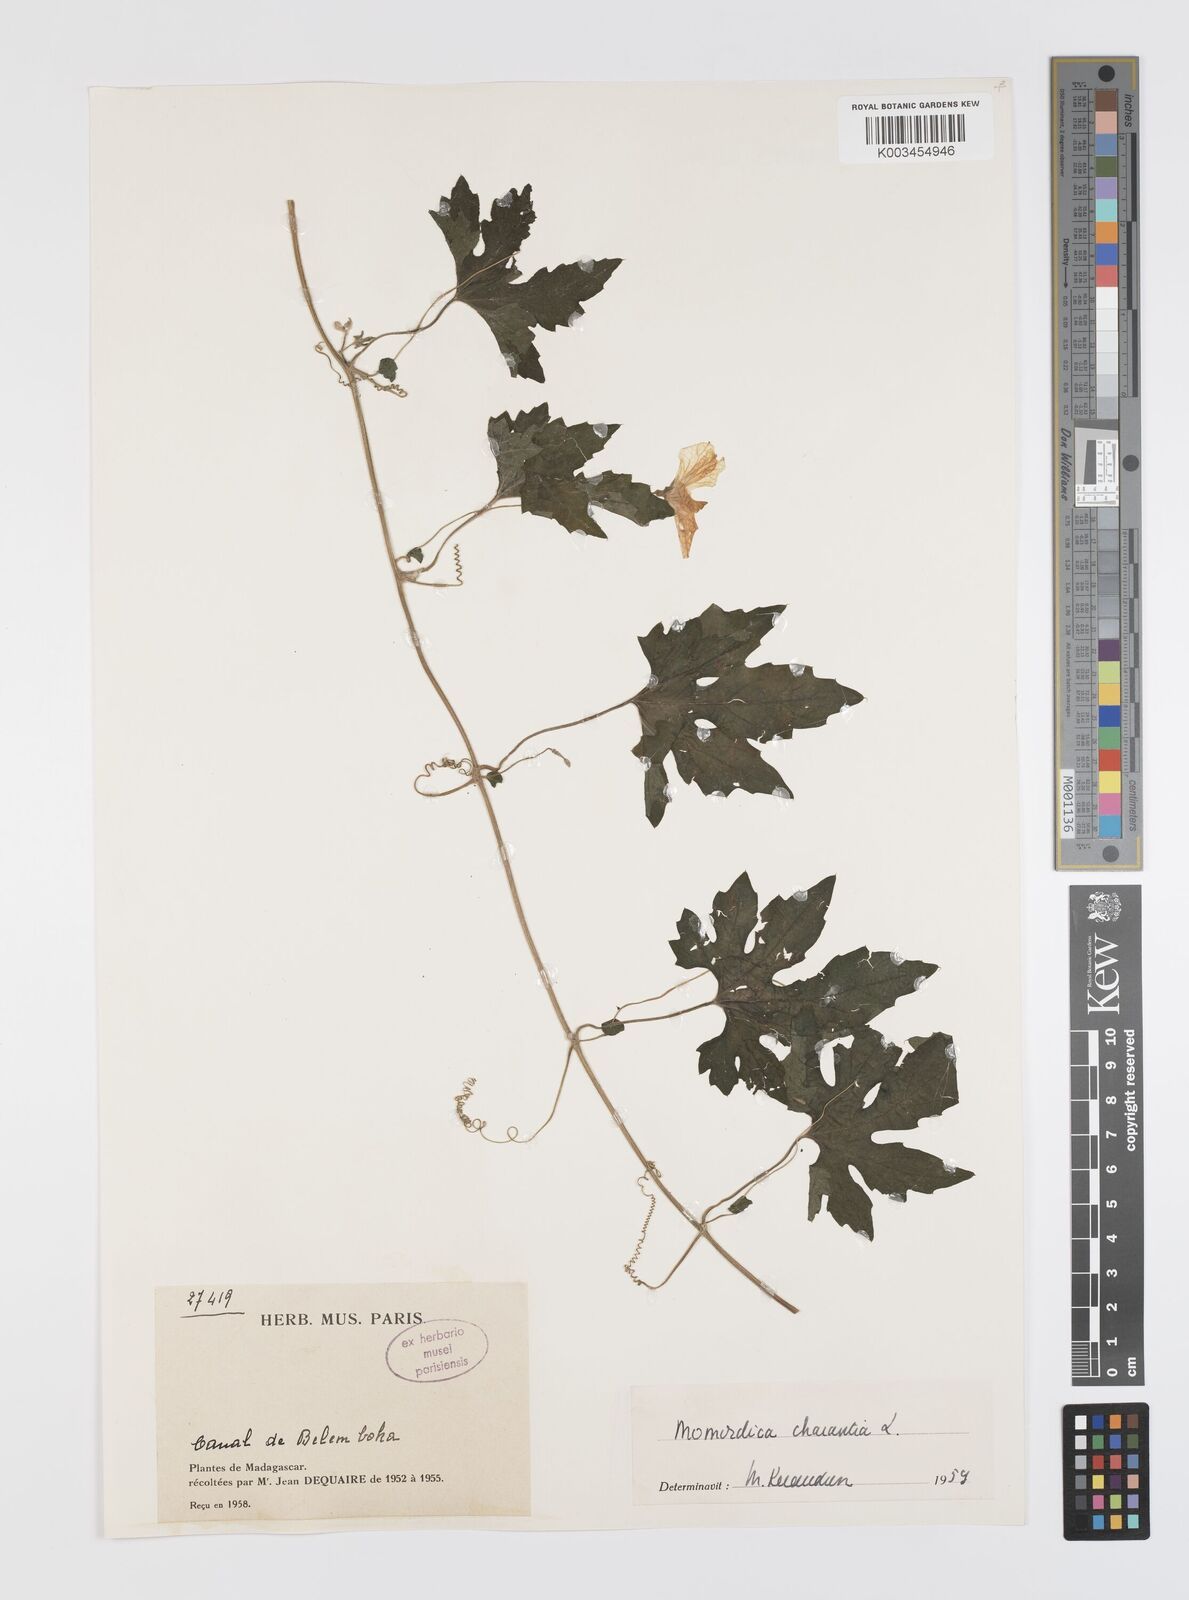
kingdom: Plantae
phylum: Tracheophyta
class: Magnoliopsida
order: Cucurbitales
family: Cucurbitaceae
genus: Momordica
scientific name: Momordica charantia
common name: Balsampear
